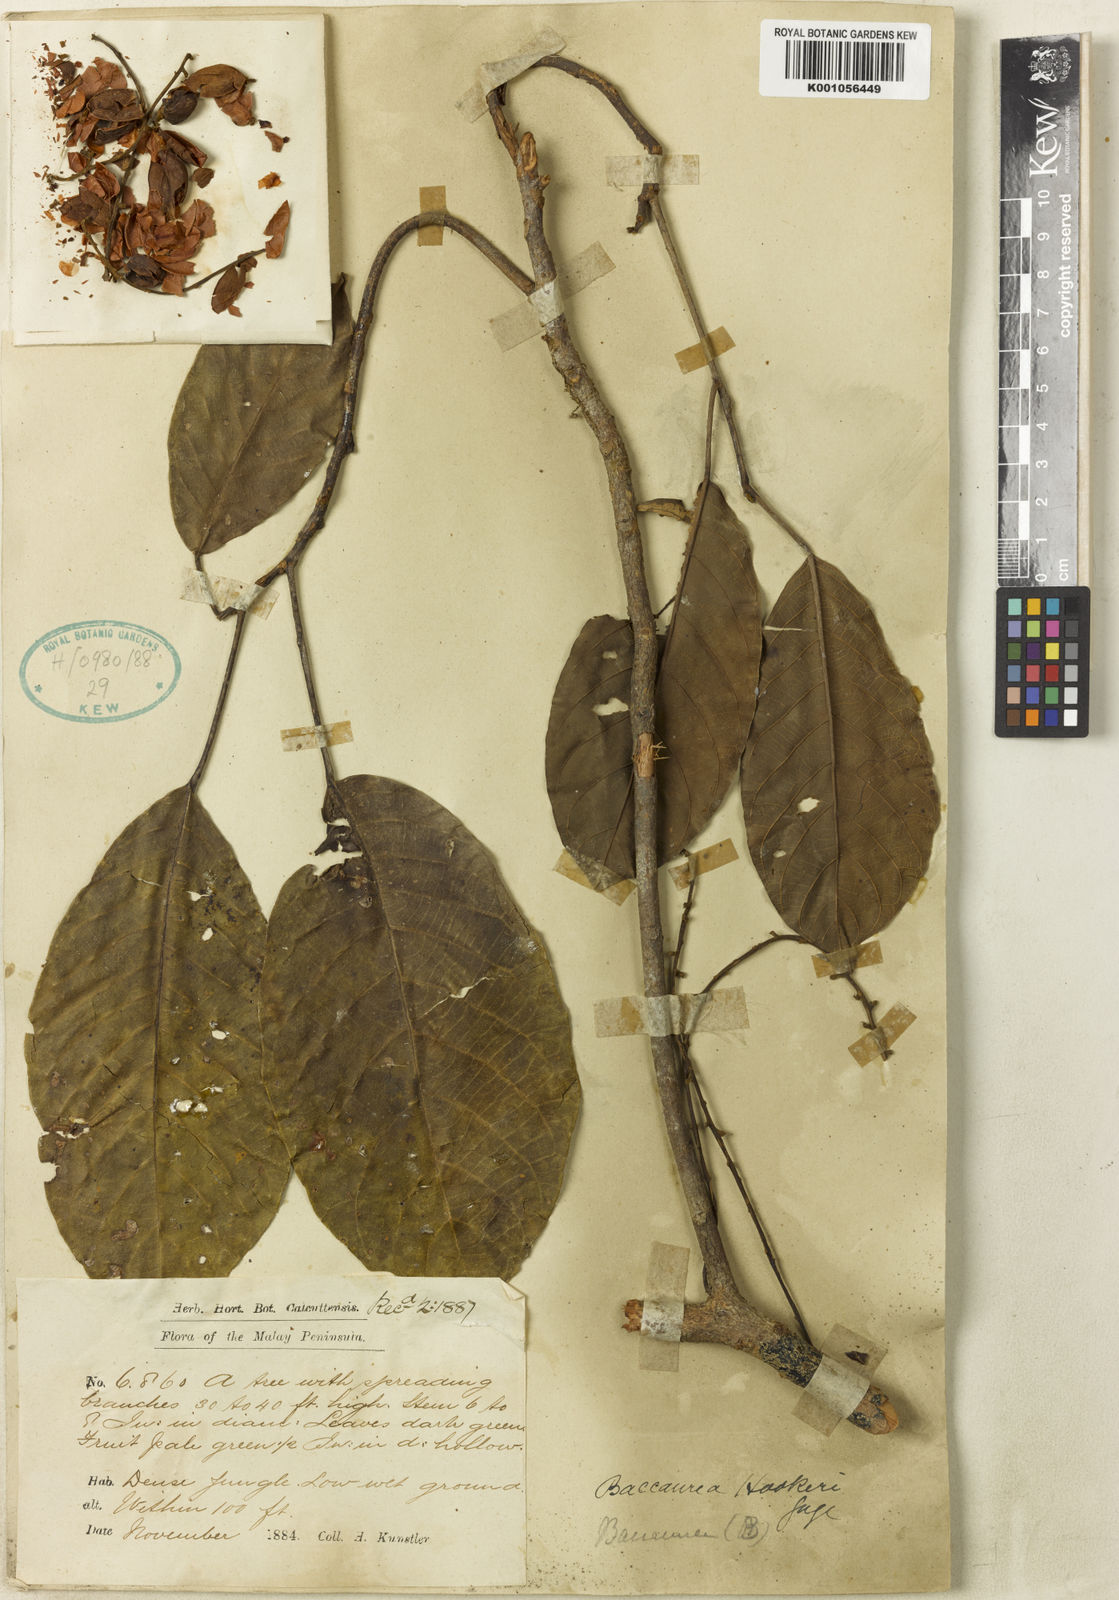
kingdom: Plantae
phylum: Tracheophyta
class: Magnoliopsida
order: Malpighiales
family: Phyllanthaceae
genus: Baccaurea
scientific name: Baccaurea polyneura
